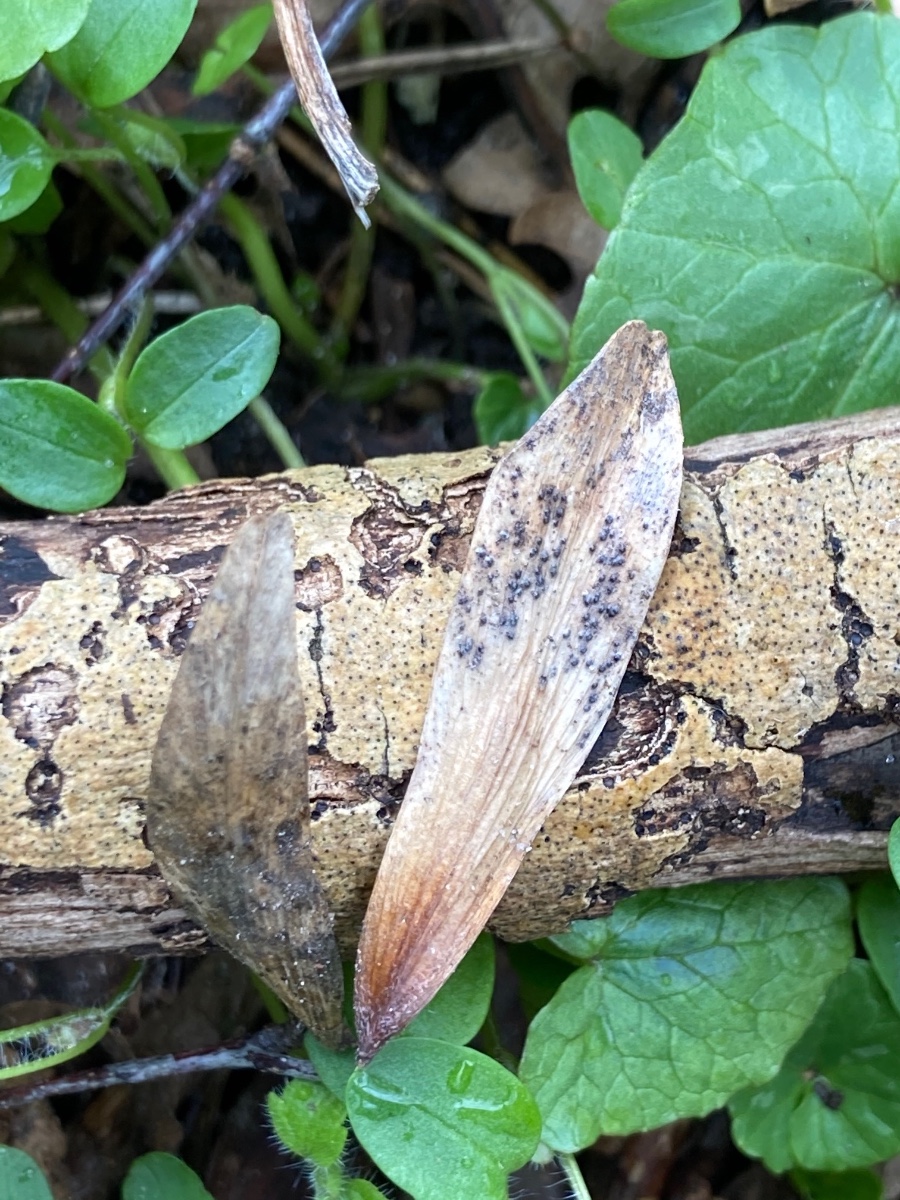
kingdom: Fungi
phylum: Ascomycota
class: Dothideomycetes
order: Pleosporales
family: Pleosporaceae
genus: Pleospora
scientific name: Pleospora
